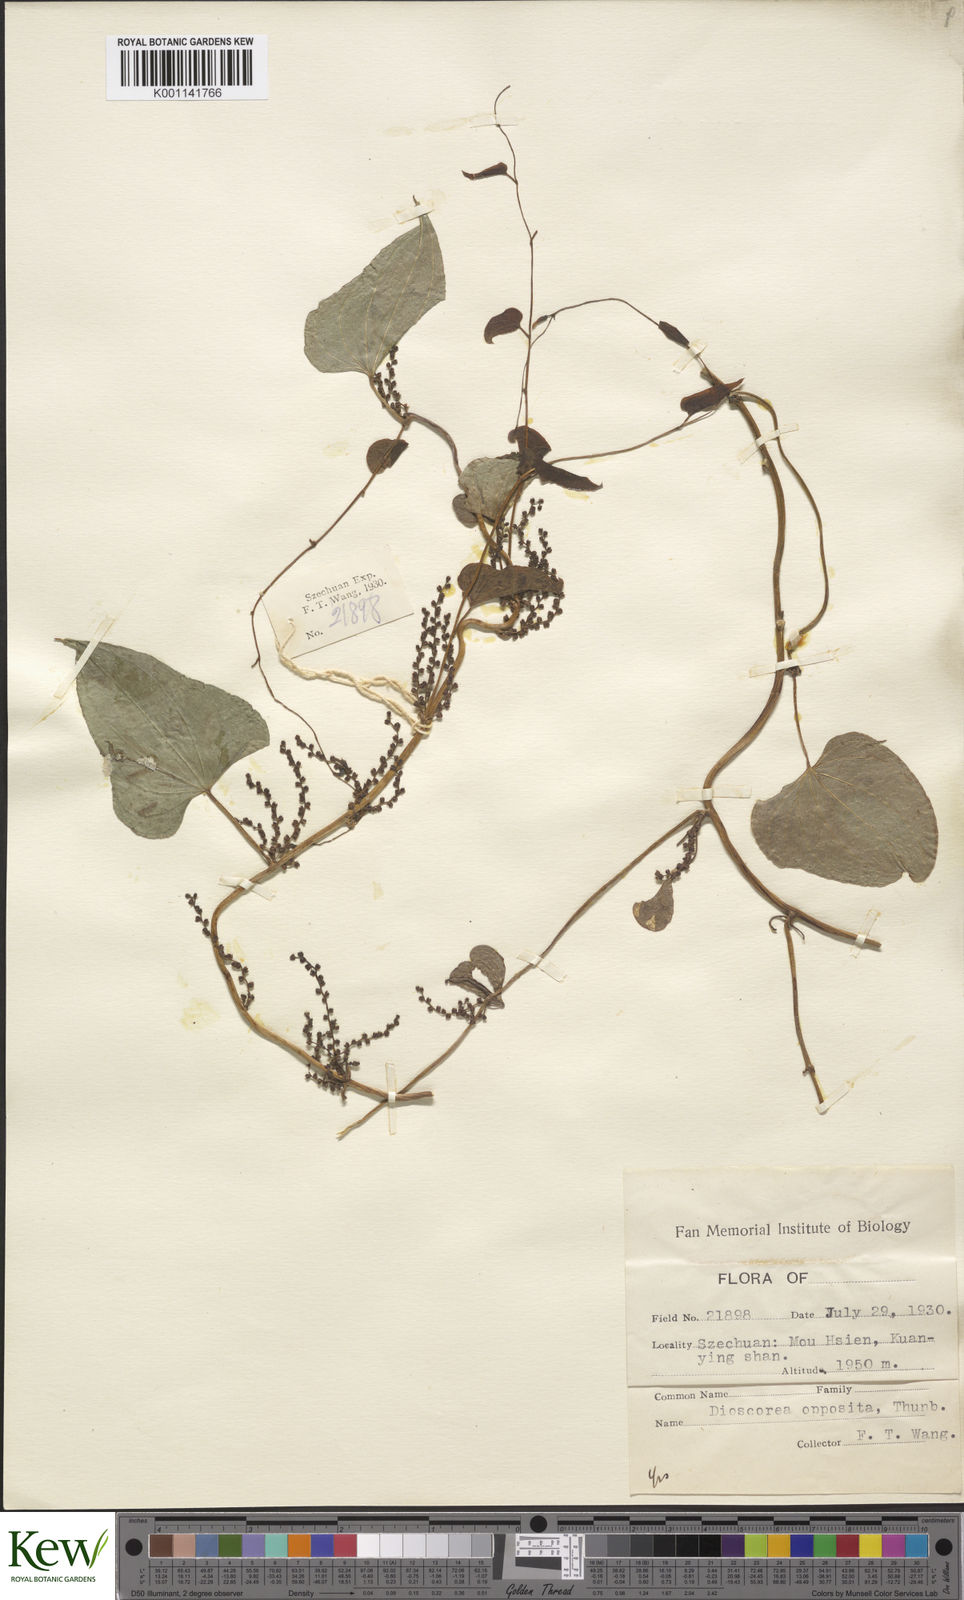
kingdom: Plantae
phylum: Tracheophyta
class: Liliopsida
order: Dioscoreales
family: Dioscoreaceae
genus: Dioscorea
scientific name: Dioscorea oppositifolia
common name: Chinese yam
